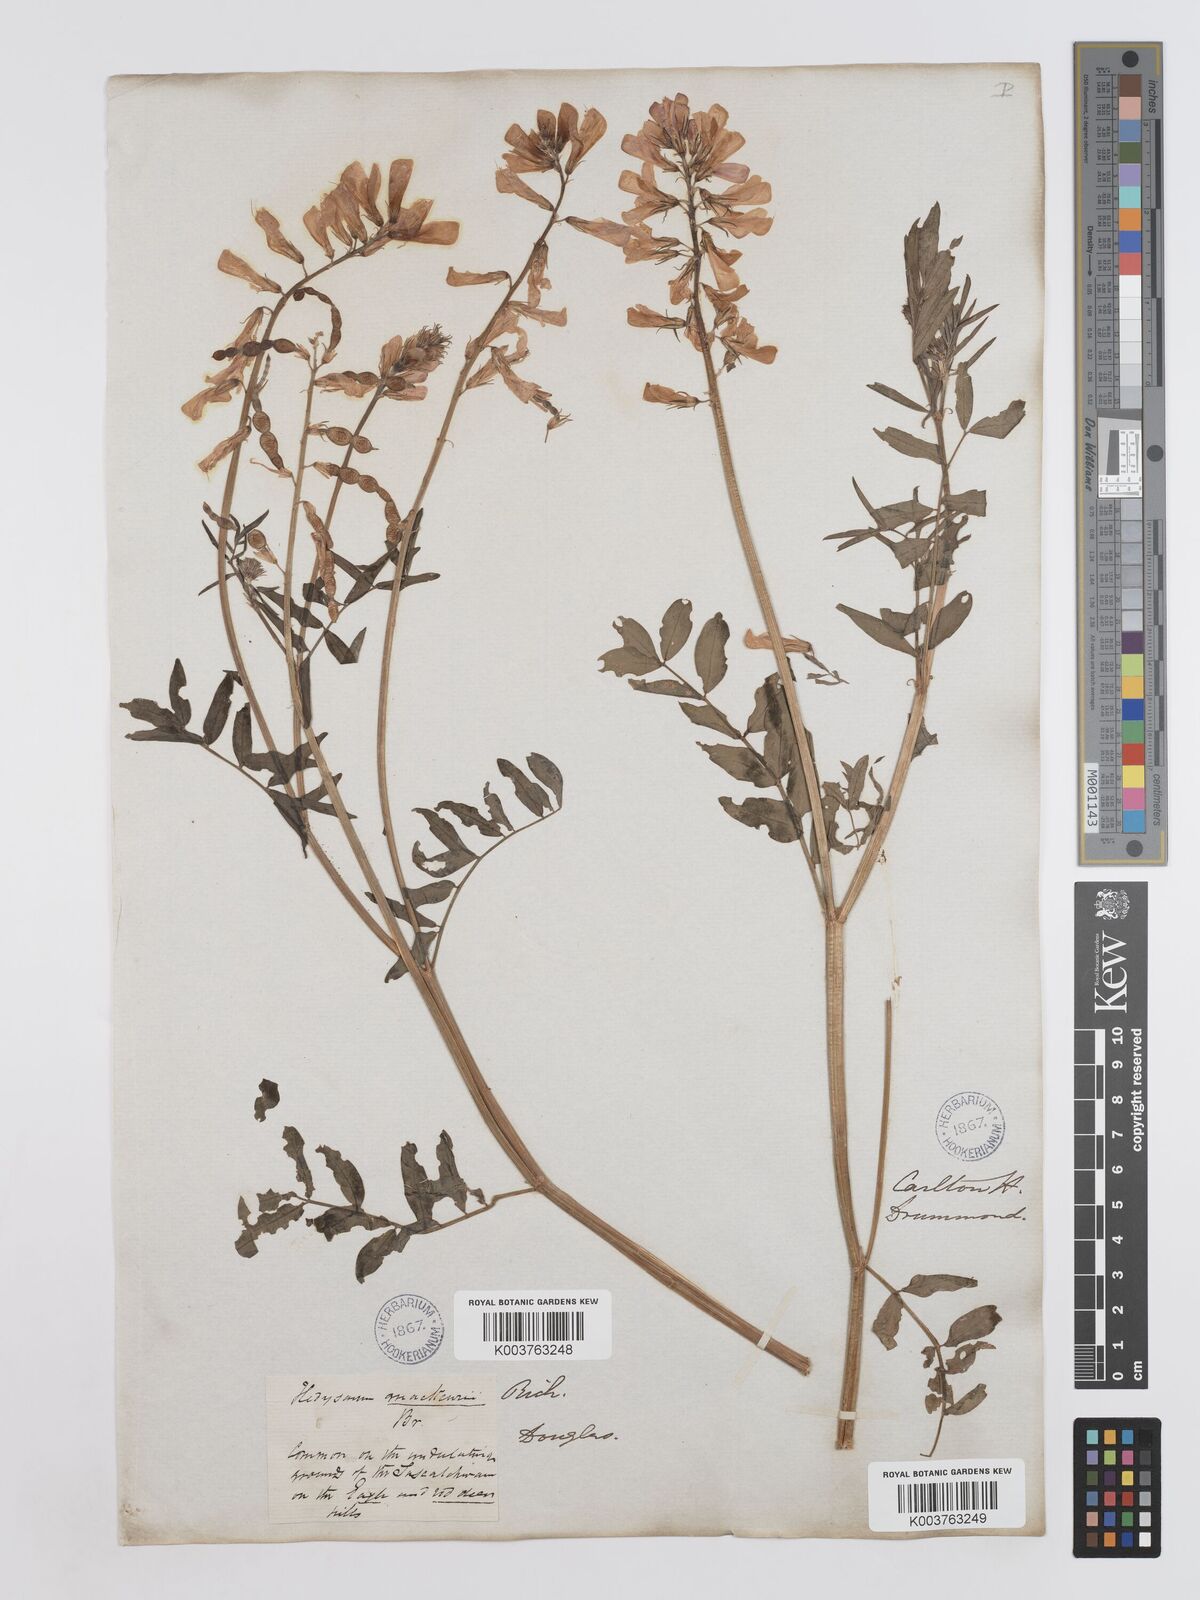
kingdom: Plantae
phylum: Tracheophyta
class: Magnoliopsida
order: Fabales
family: Fabaceae
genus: Hedysarum
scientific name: Hedysarum boreale
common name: Northern sweet-vetch
